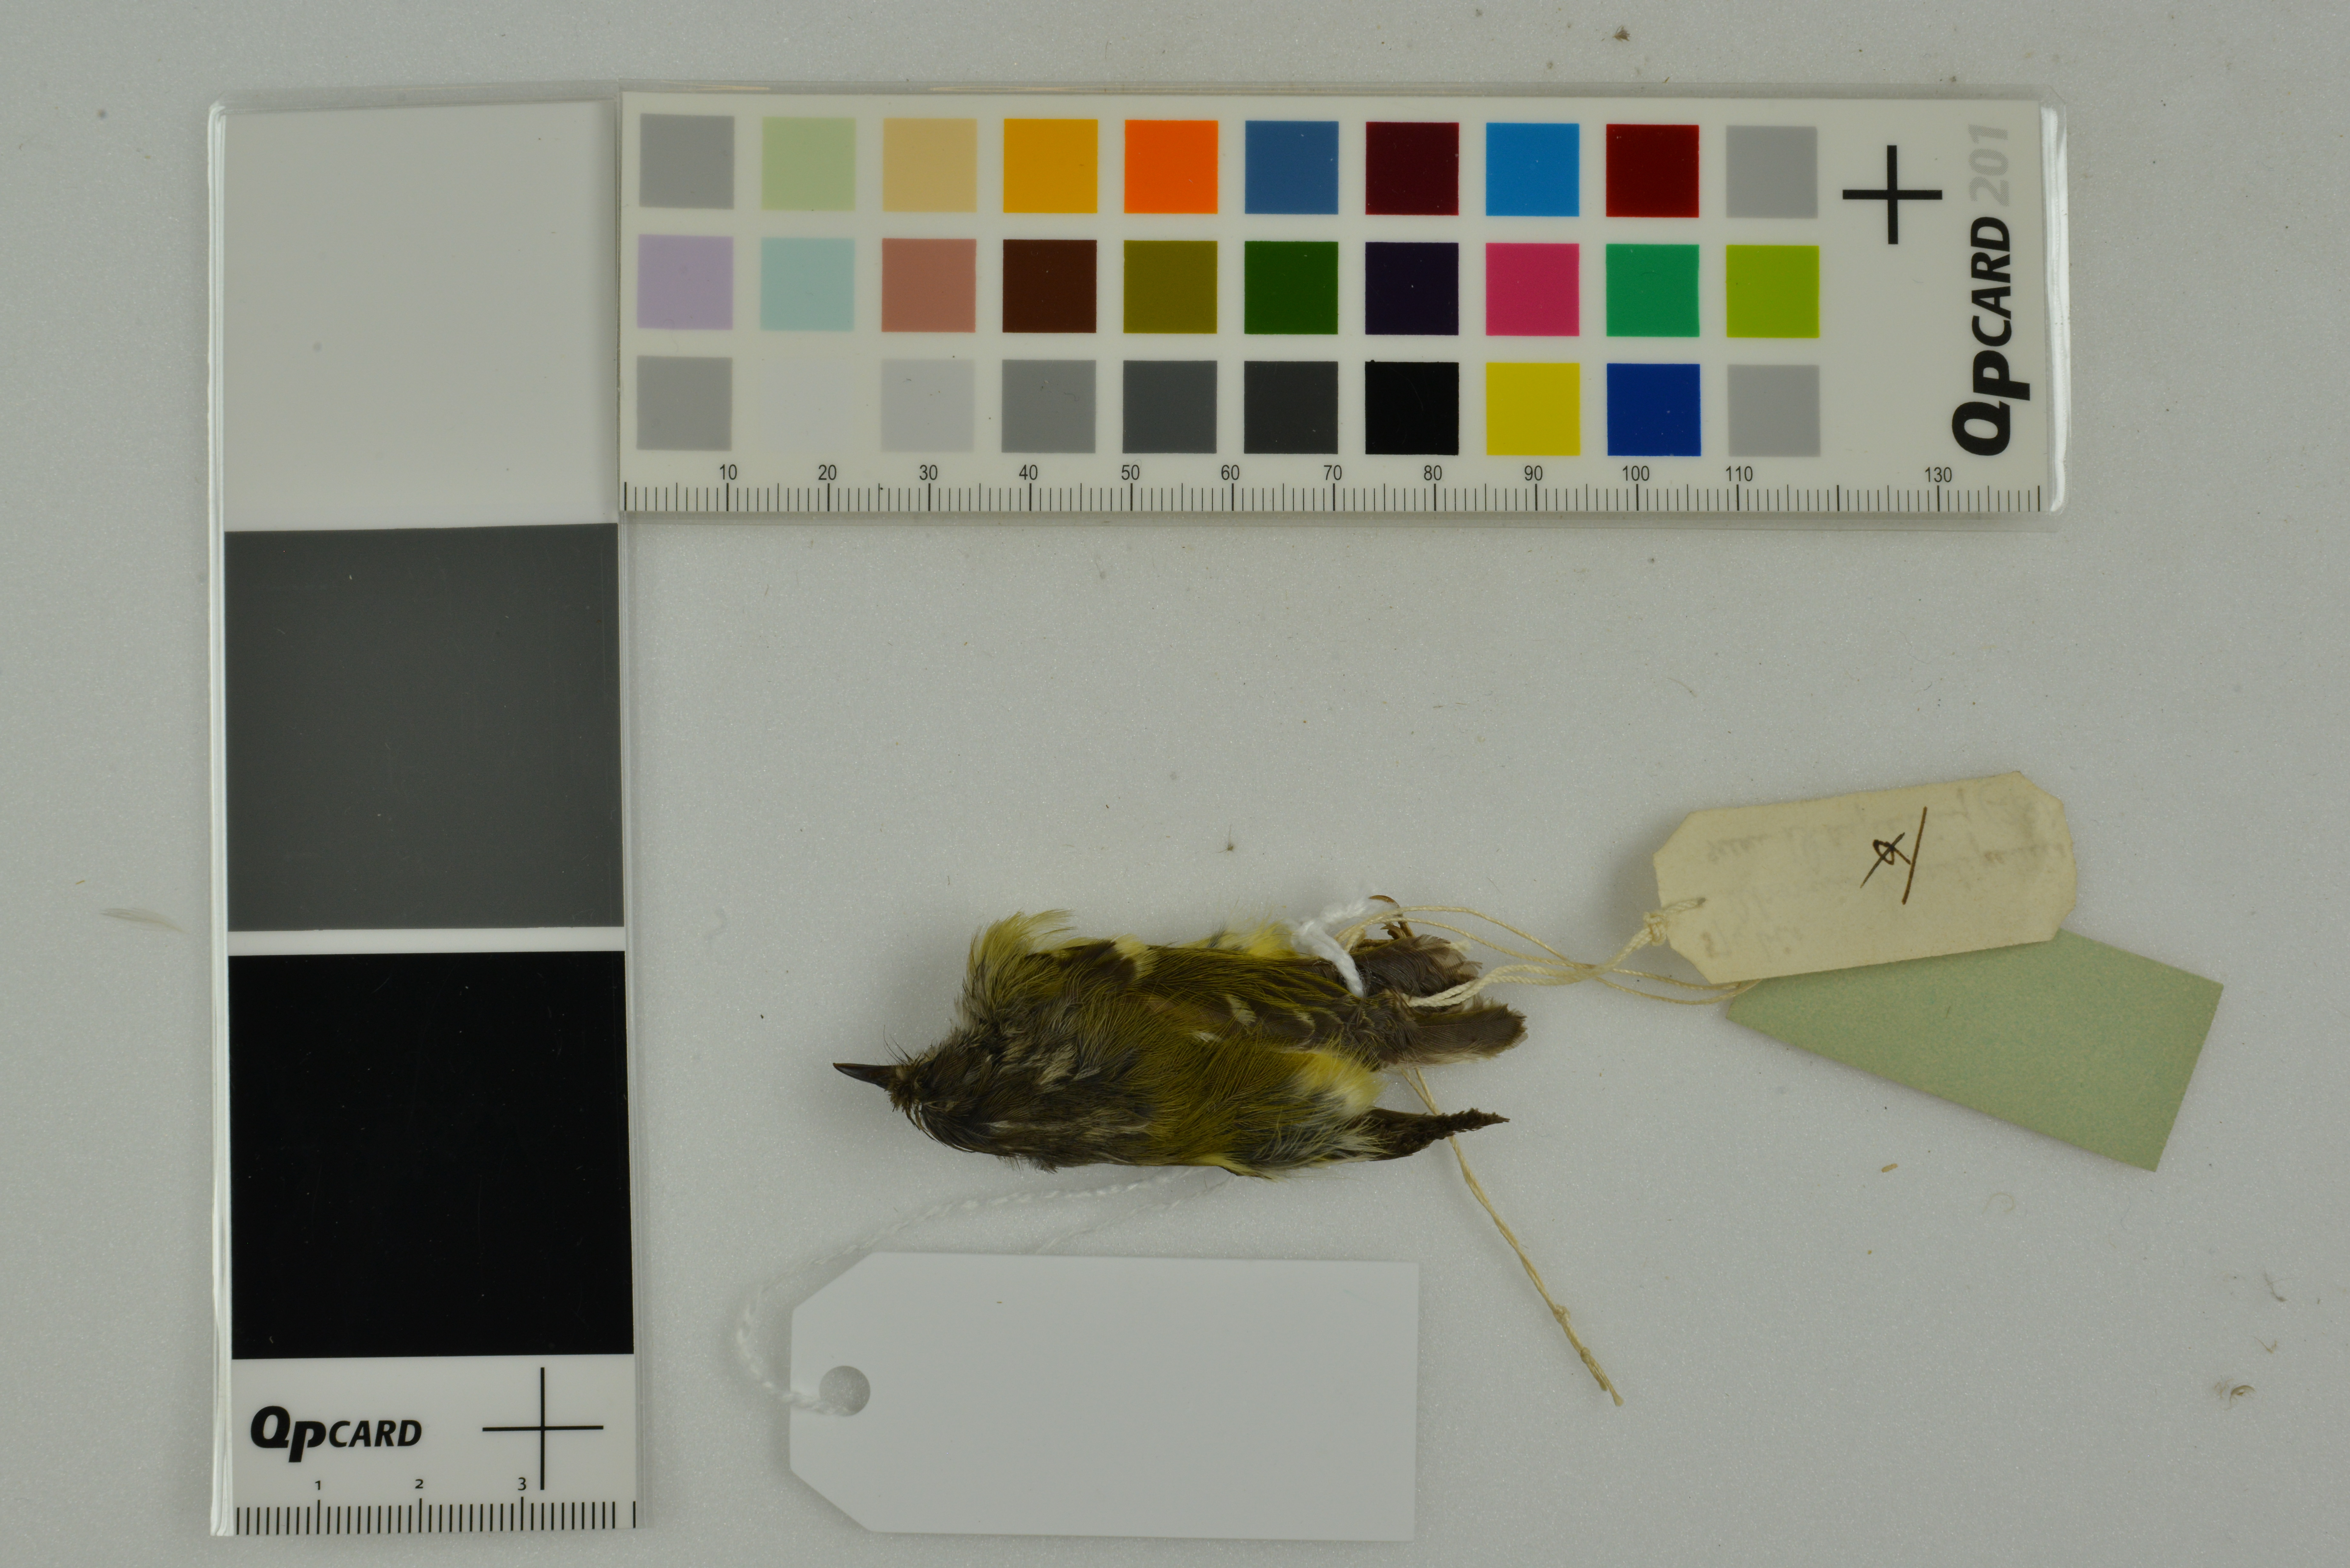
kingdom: Animalia
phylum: Chordata
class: Aves
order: Passeriformes
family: Phylloscopidae
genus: Phylloscopus
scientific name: Phylloscopus maculipennis
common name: Ashy-throated warbler
